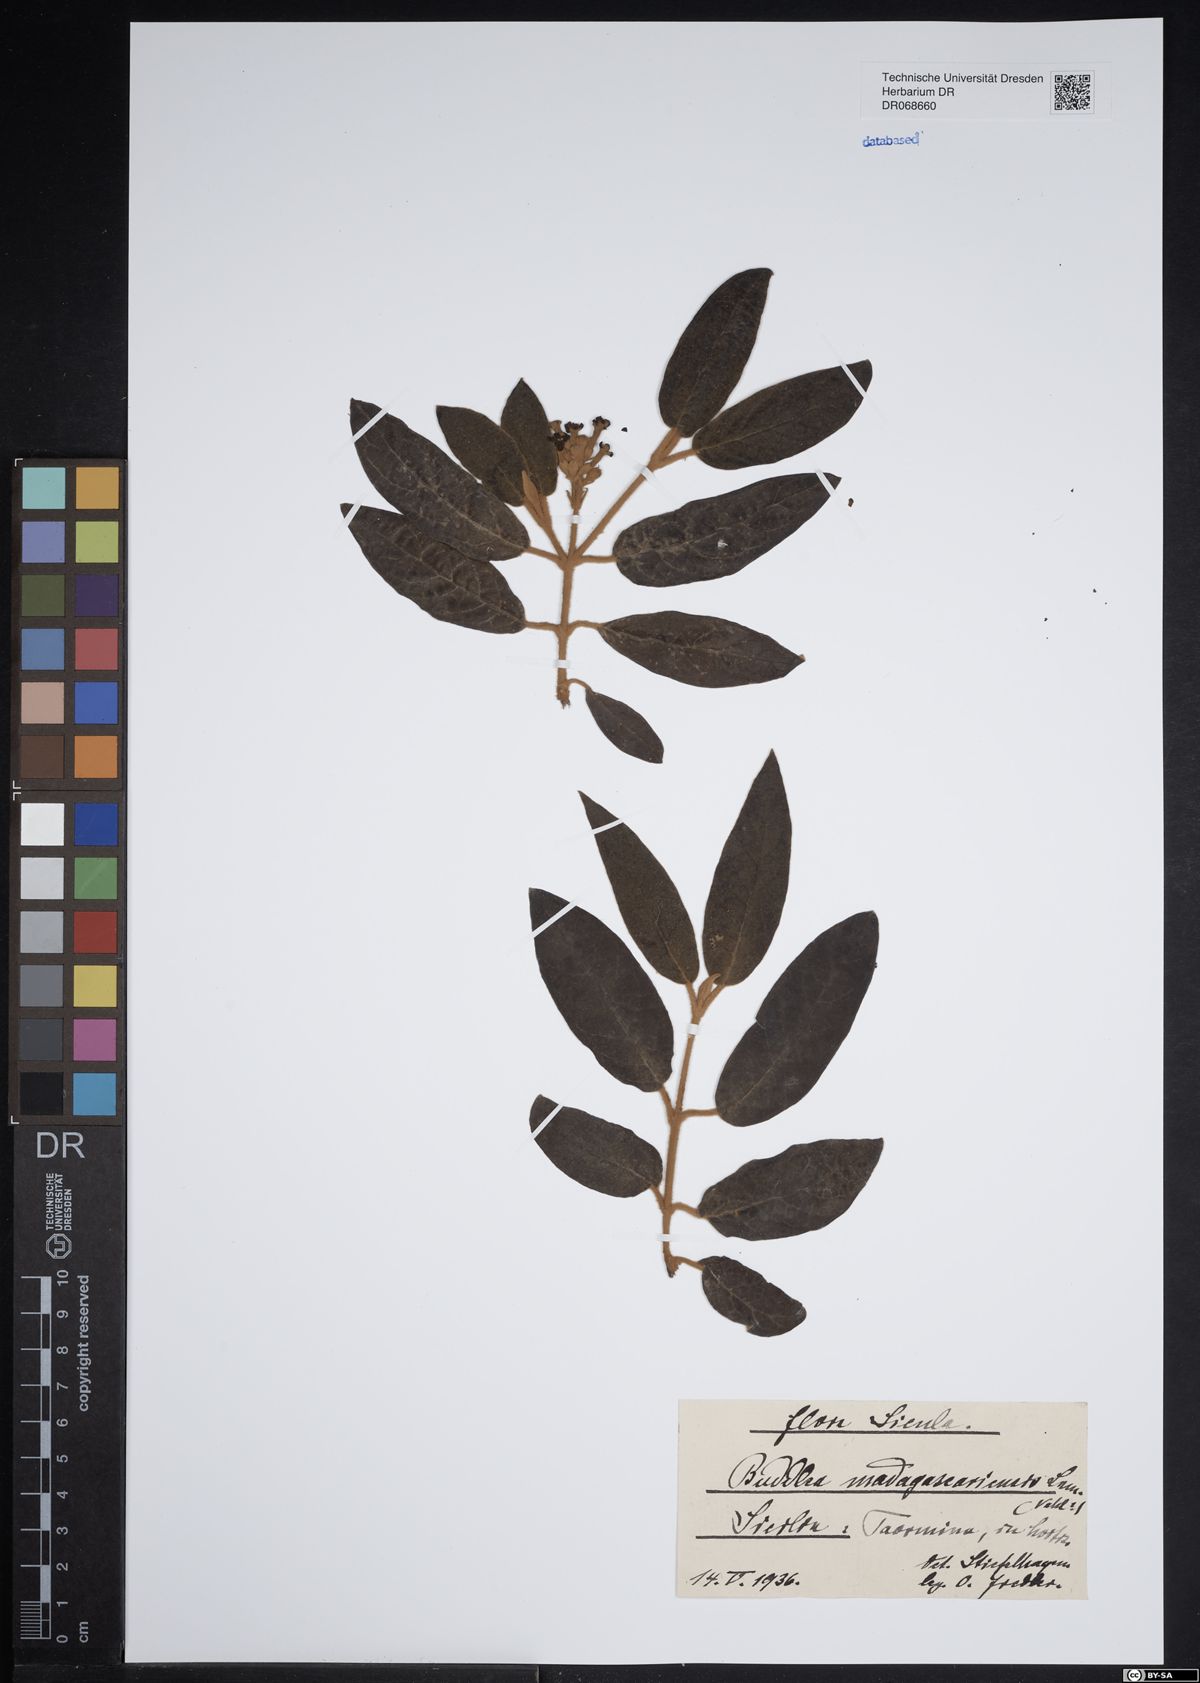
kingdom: Plantae
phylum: Tracheophyta
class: Magnoliopsida
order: Lamiales
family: Scrophulariaceae
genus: Buddleja
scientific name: Buddleja madagascariensis
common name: Smokebush
